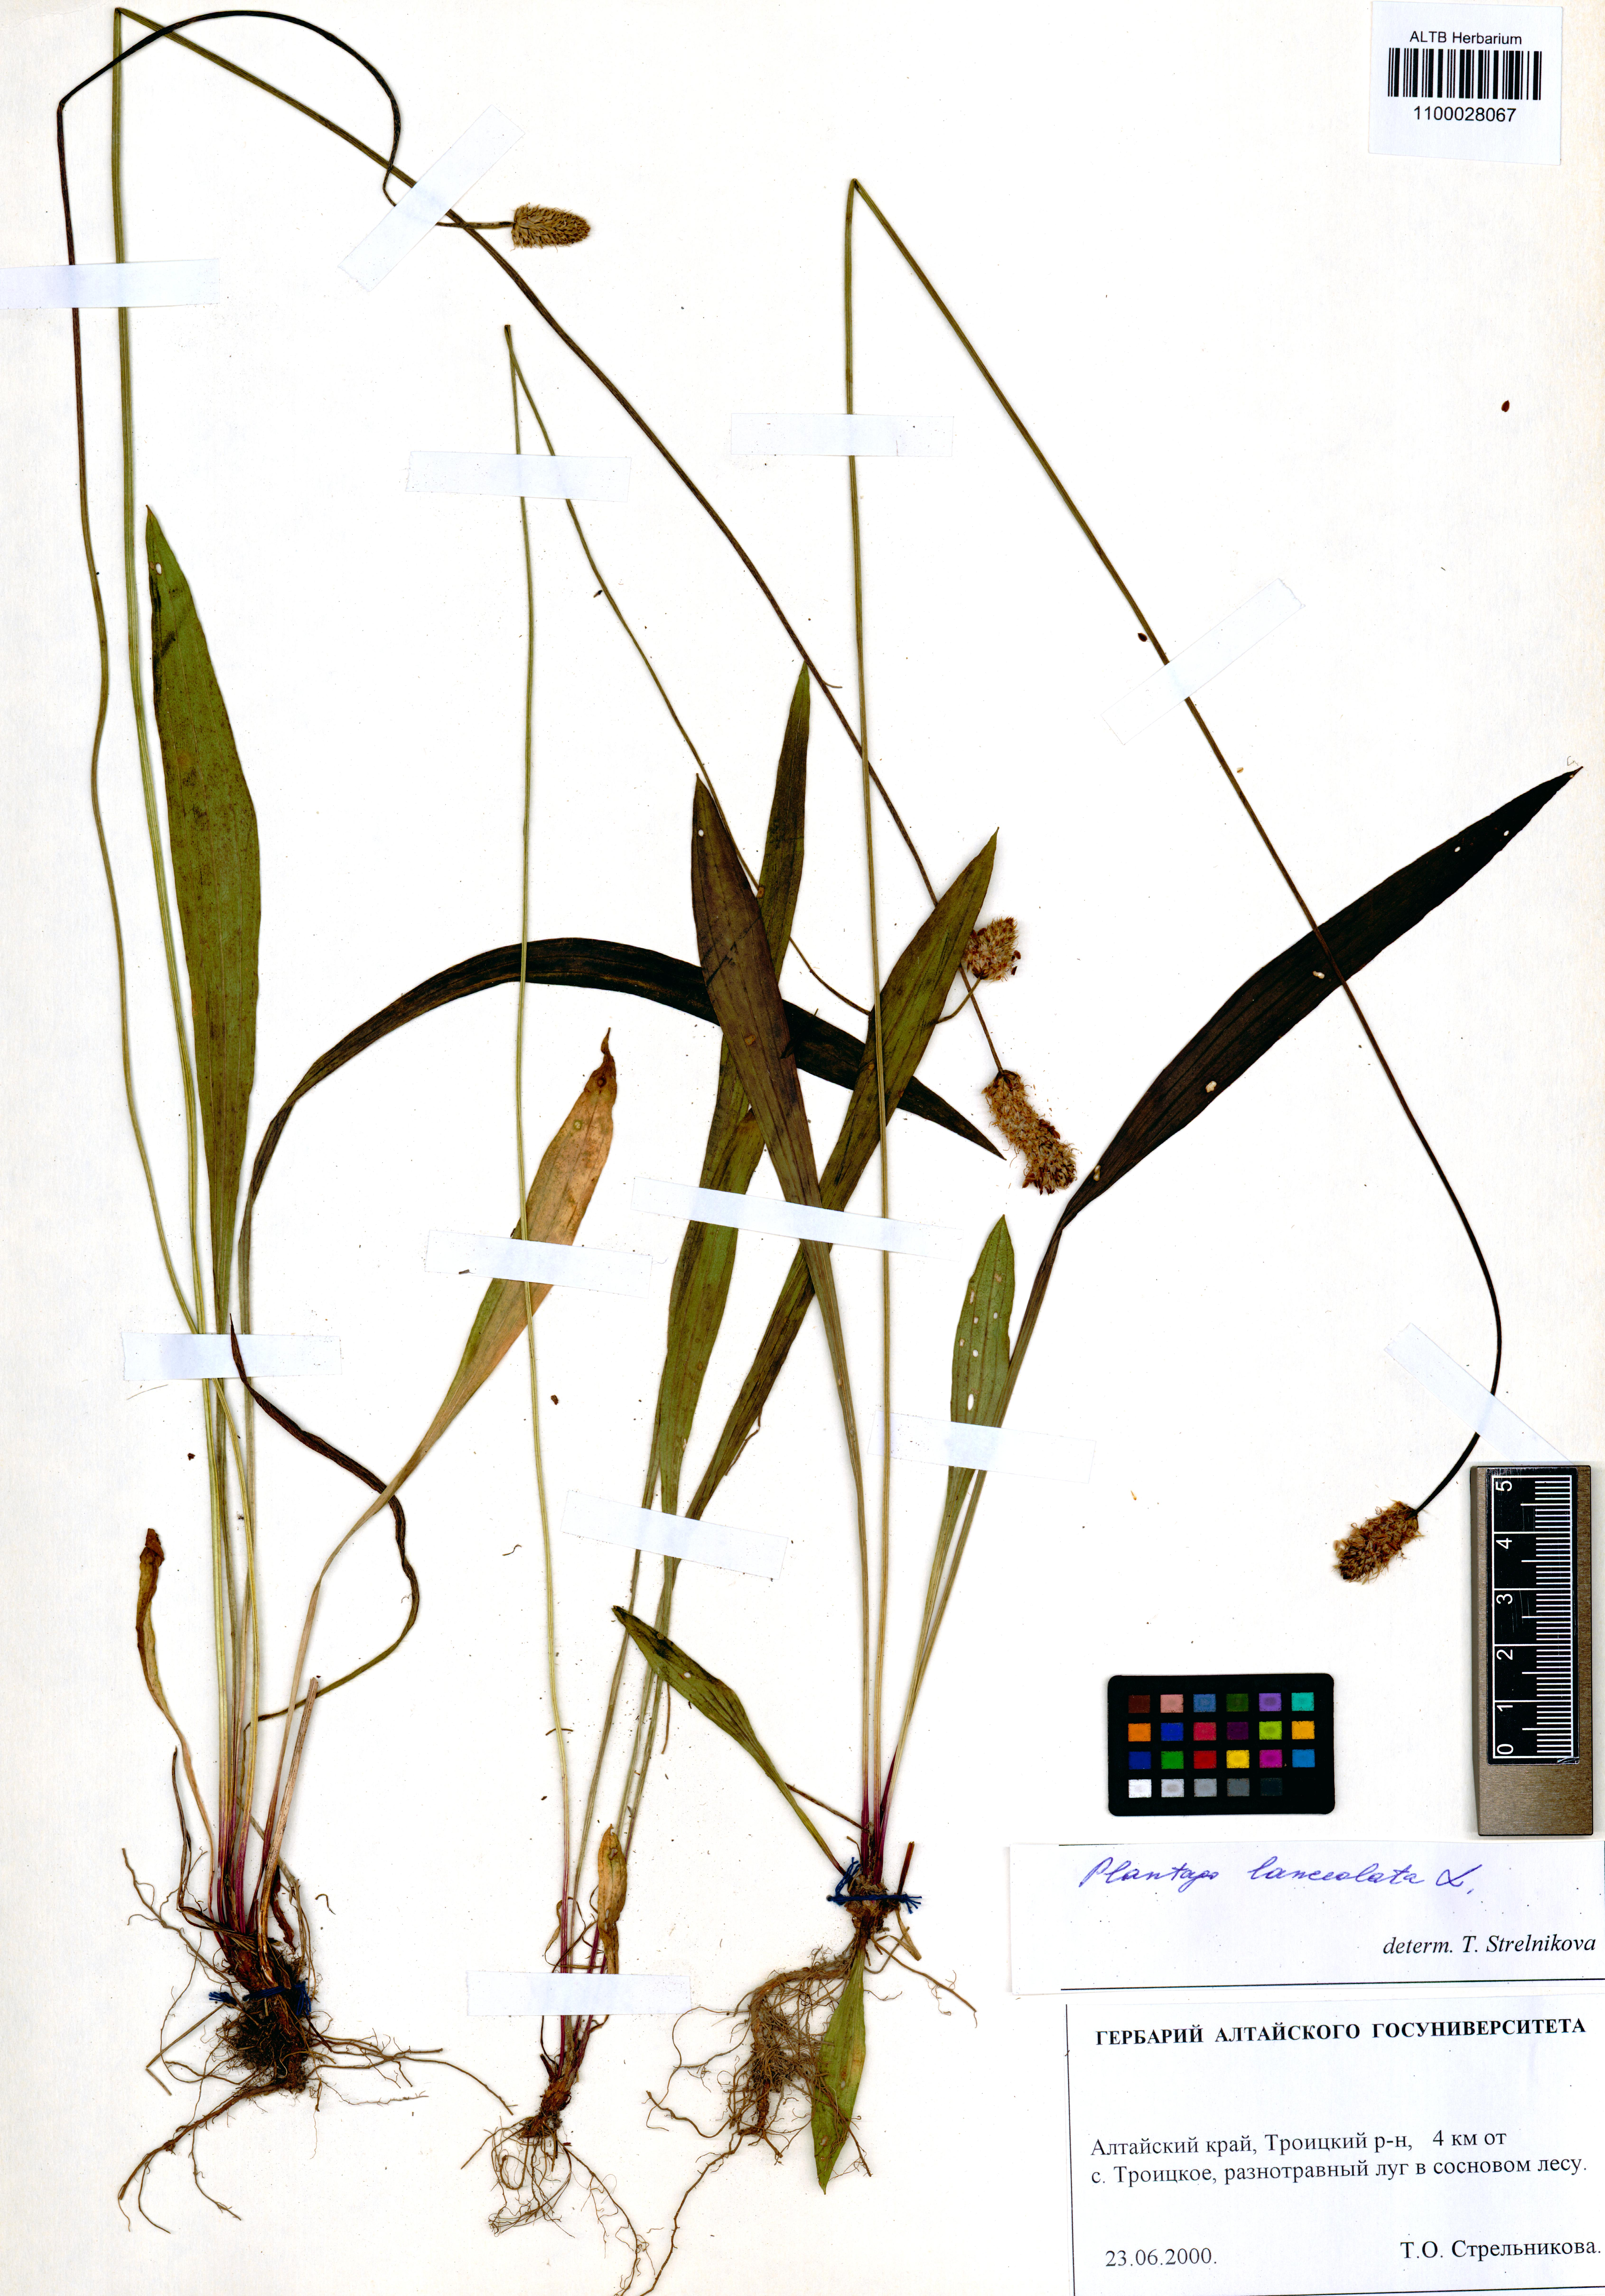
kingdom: Plantae
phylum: Tracheophyta
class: Magnoliopsida
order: Lamiales
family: Plantaginaceae
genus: Plantago
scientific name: Plantago lanceolata
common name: Ribwort plantain
